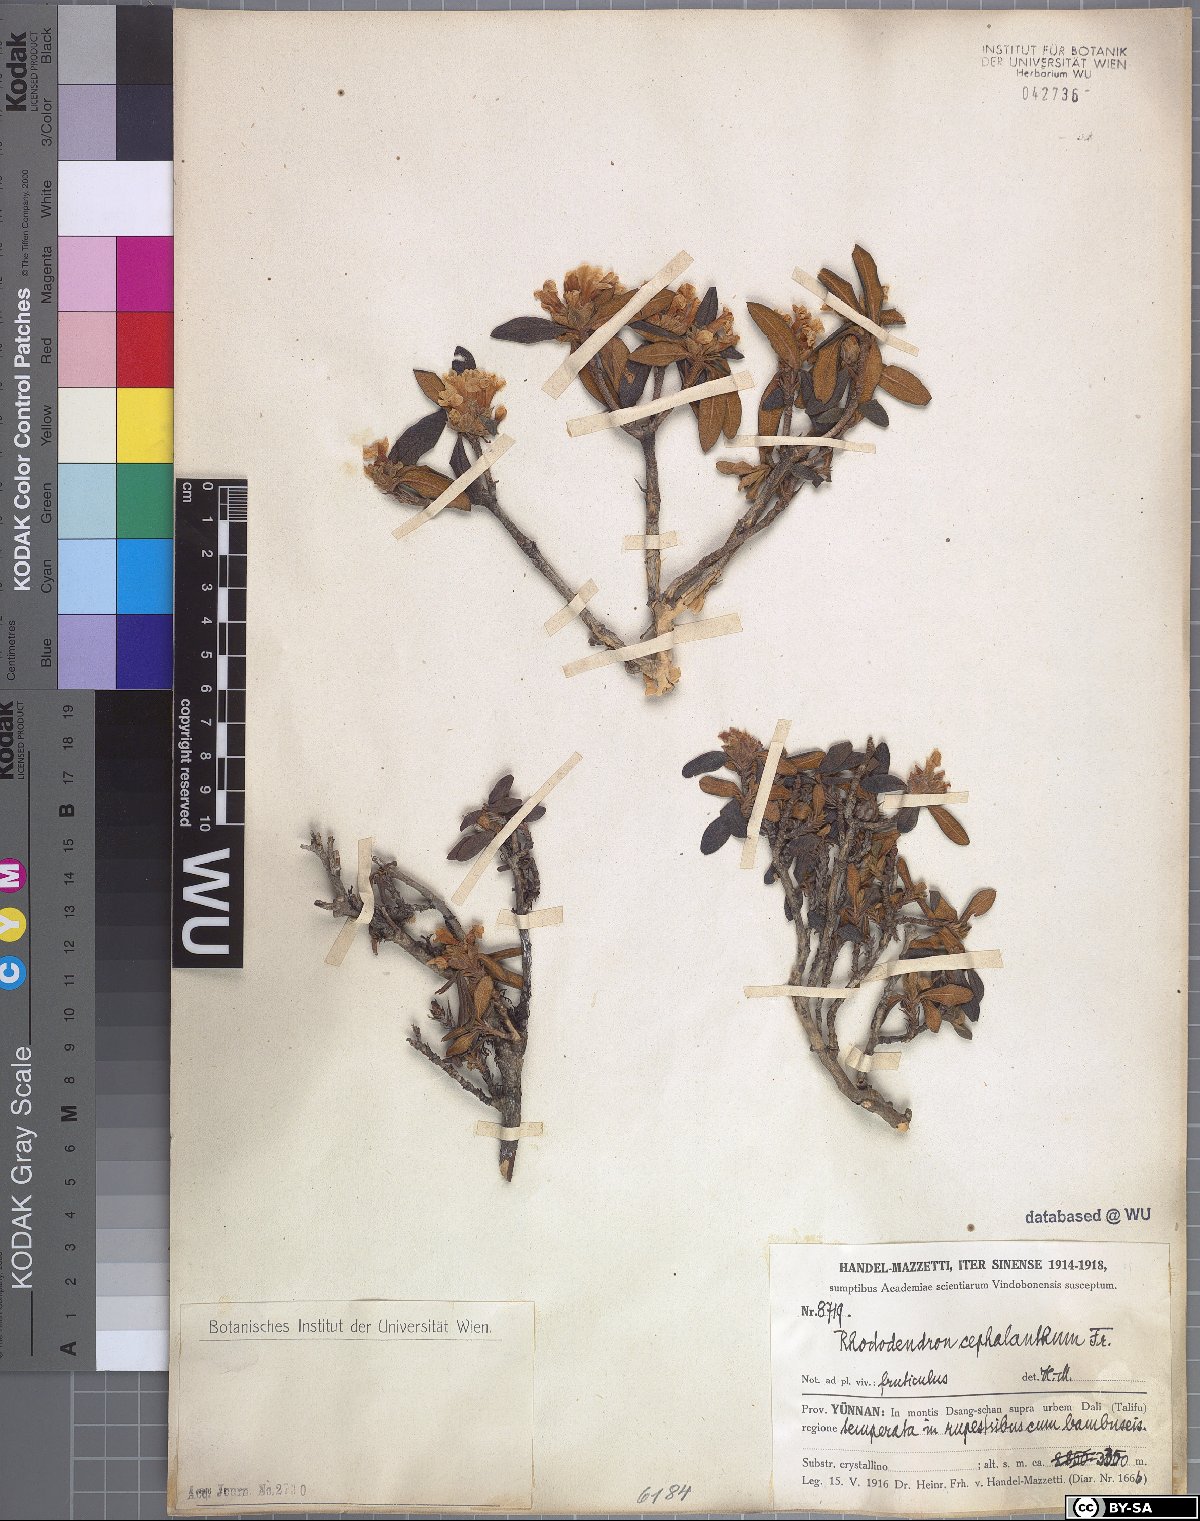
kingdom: Plantae
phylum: Tracheophyta
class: Magnoliopsida
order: Ericales
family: Ericaceae
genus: Rhododendron
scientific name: Rhododendron cephalanthum
